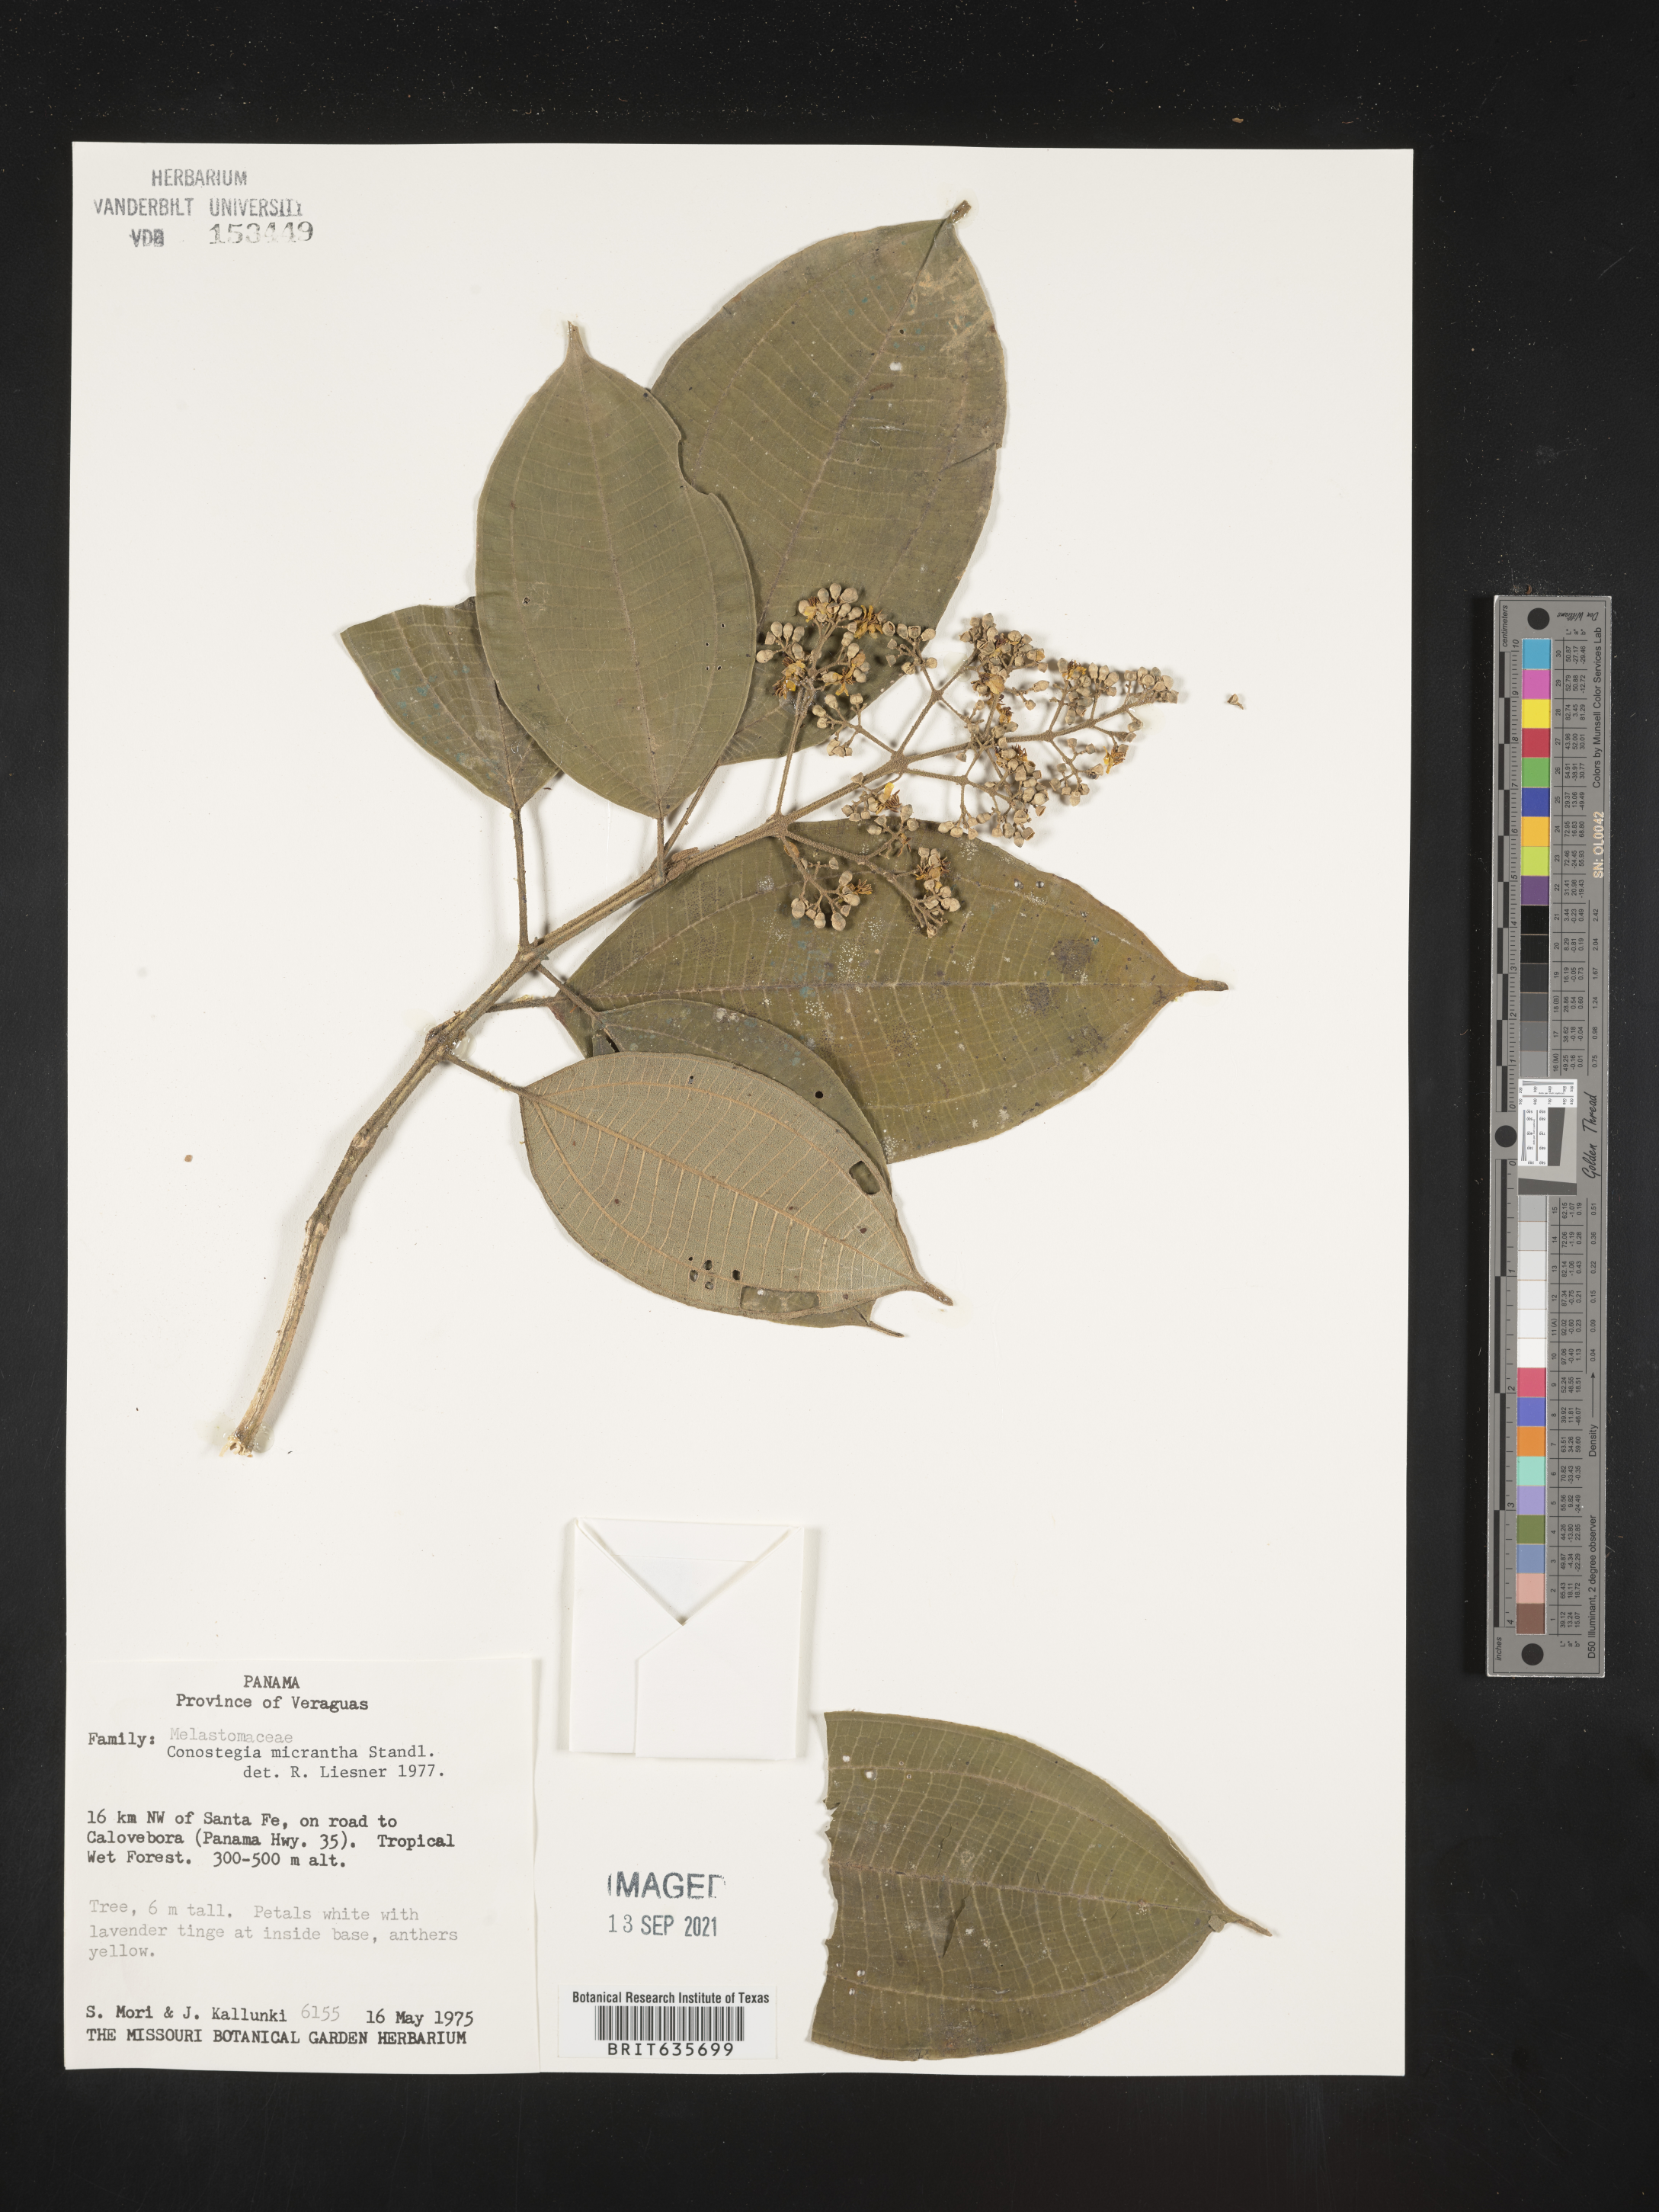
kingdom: Plantae
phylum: Tracheophyta
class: Magnoliopsida
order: Myrtales
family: Melastomataceae
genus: Miconia
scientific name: Miconia
